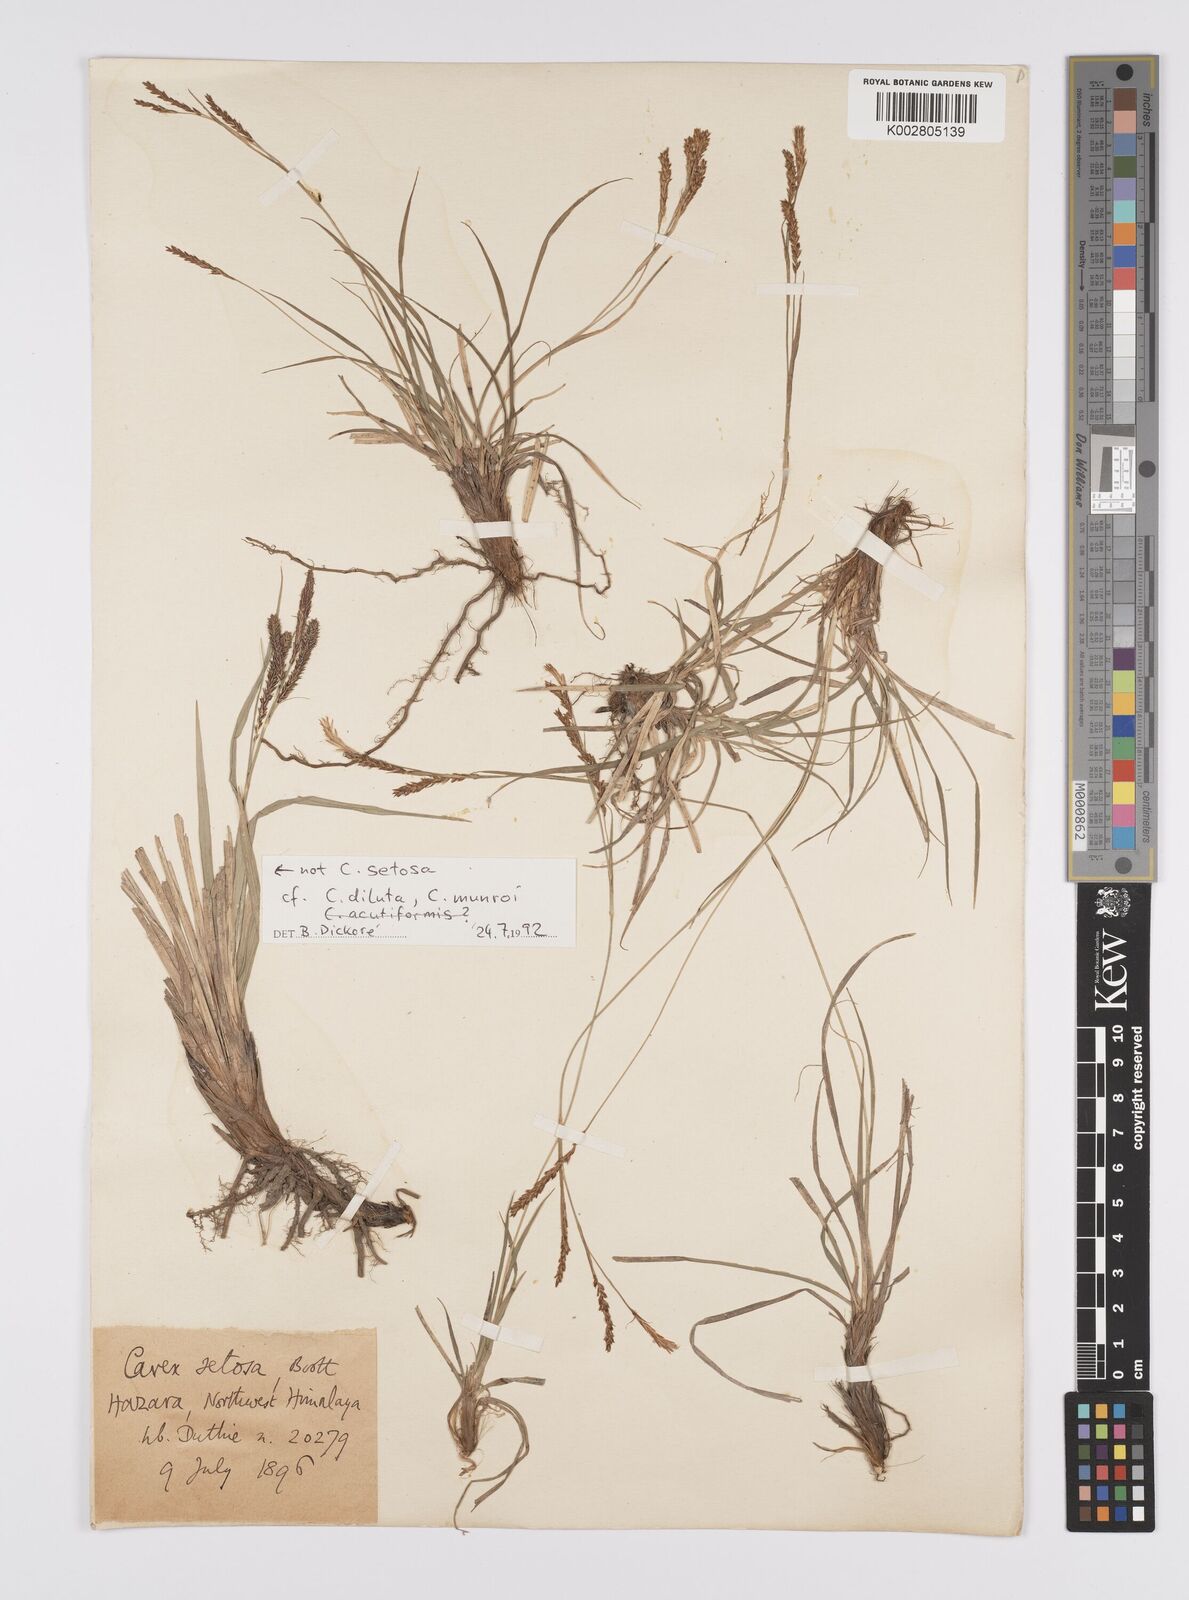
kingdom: Plantae
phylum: Tracheophyta
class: Liliopsida
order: Poales
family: Cyperaceae
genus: Carex
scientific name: Carex setosa
